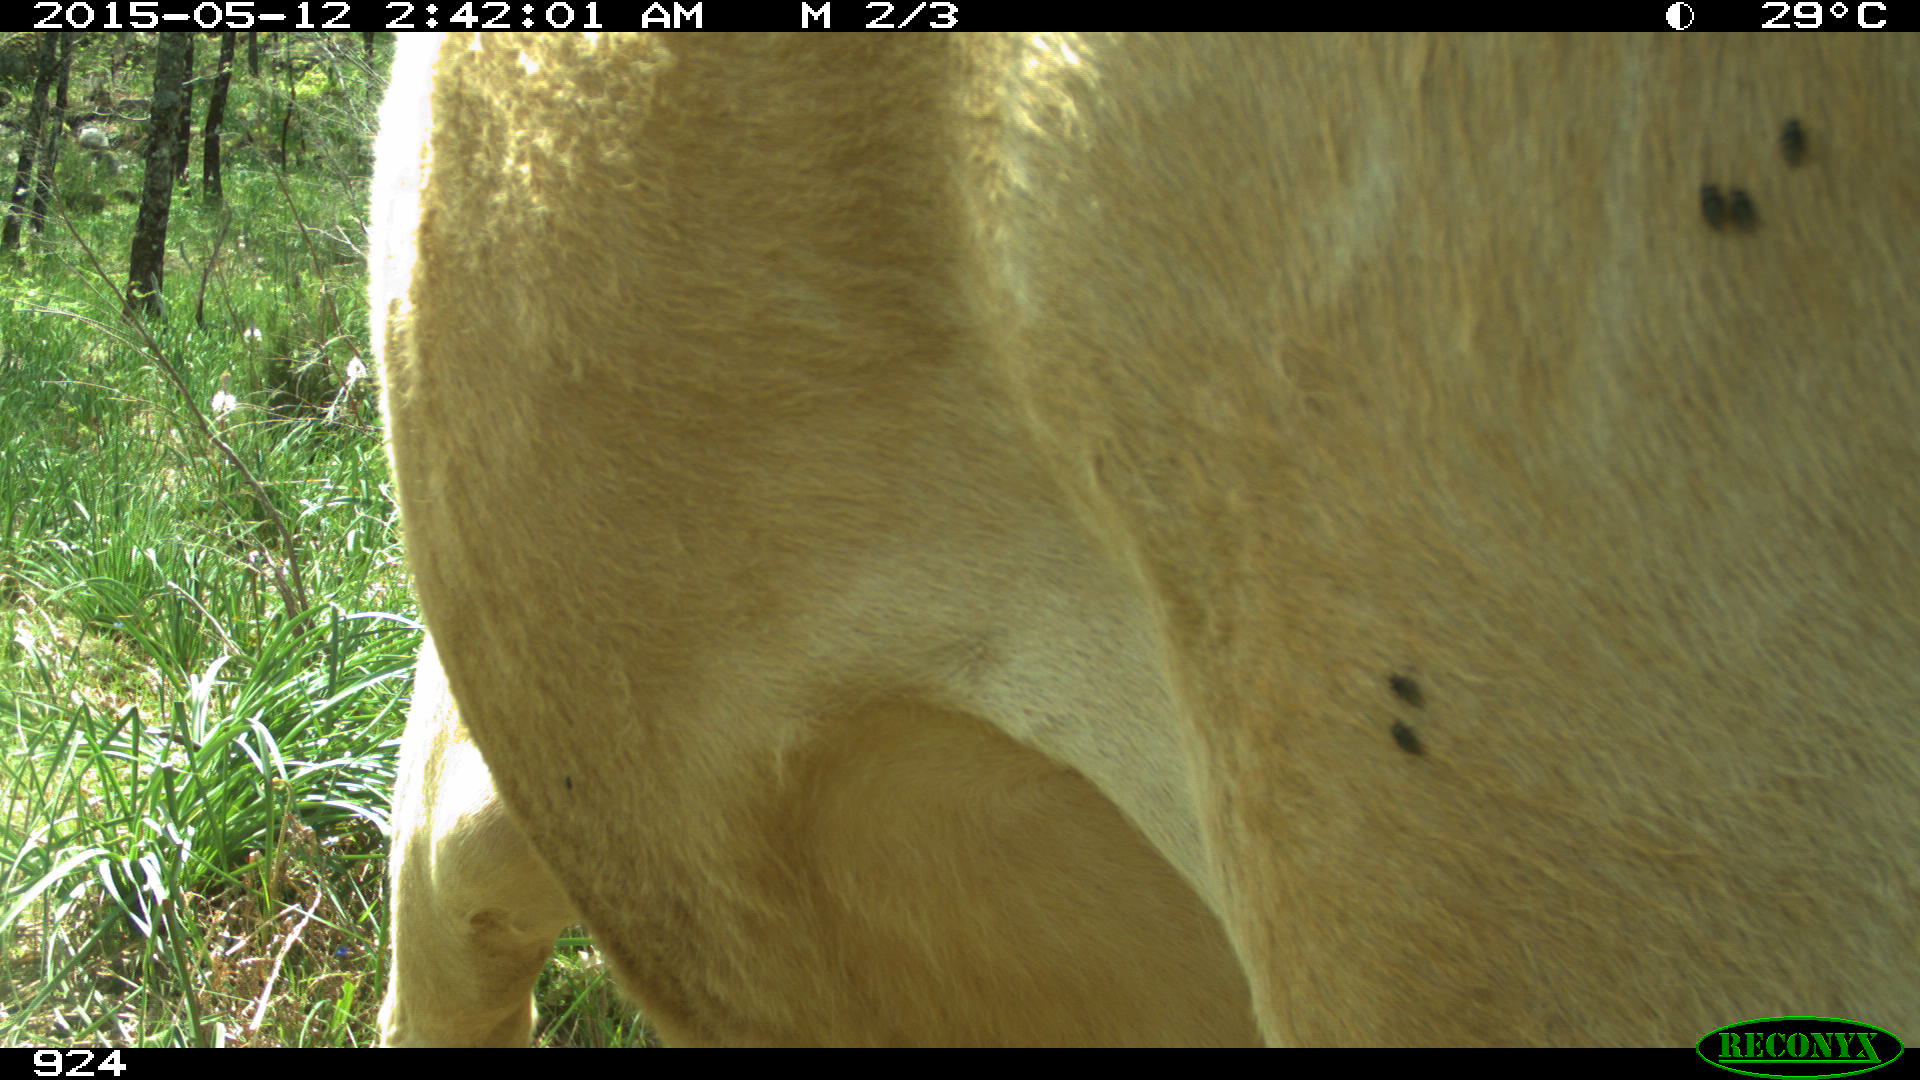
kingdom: Animalia
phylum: Chordata
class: Mammalia
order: Artiodactyla
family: Bovidae
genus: Bos
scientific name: Bos taurus
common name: Domesticated cattle
